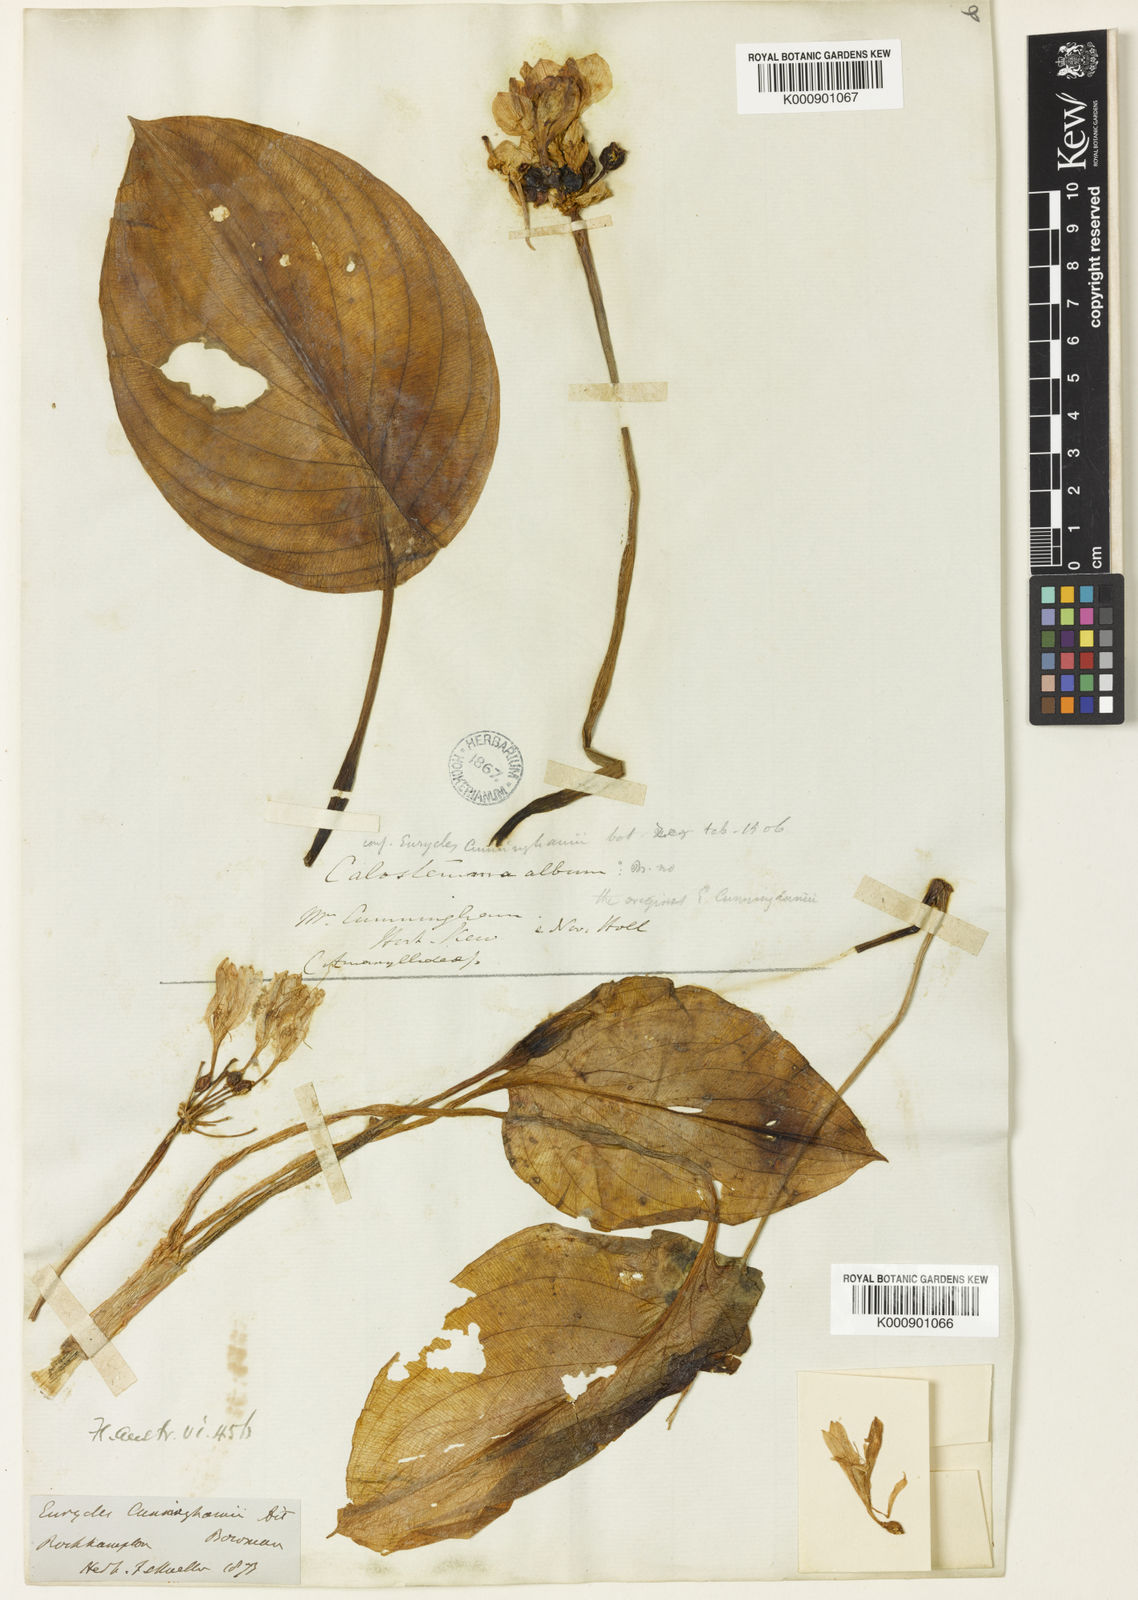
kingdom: Plantae
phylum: Tracheophyta
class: Liliopsida
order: Asparagales
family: Amaryllidaceae
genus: Proiphys
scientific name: Proiphys cunninghamii
